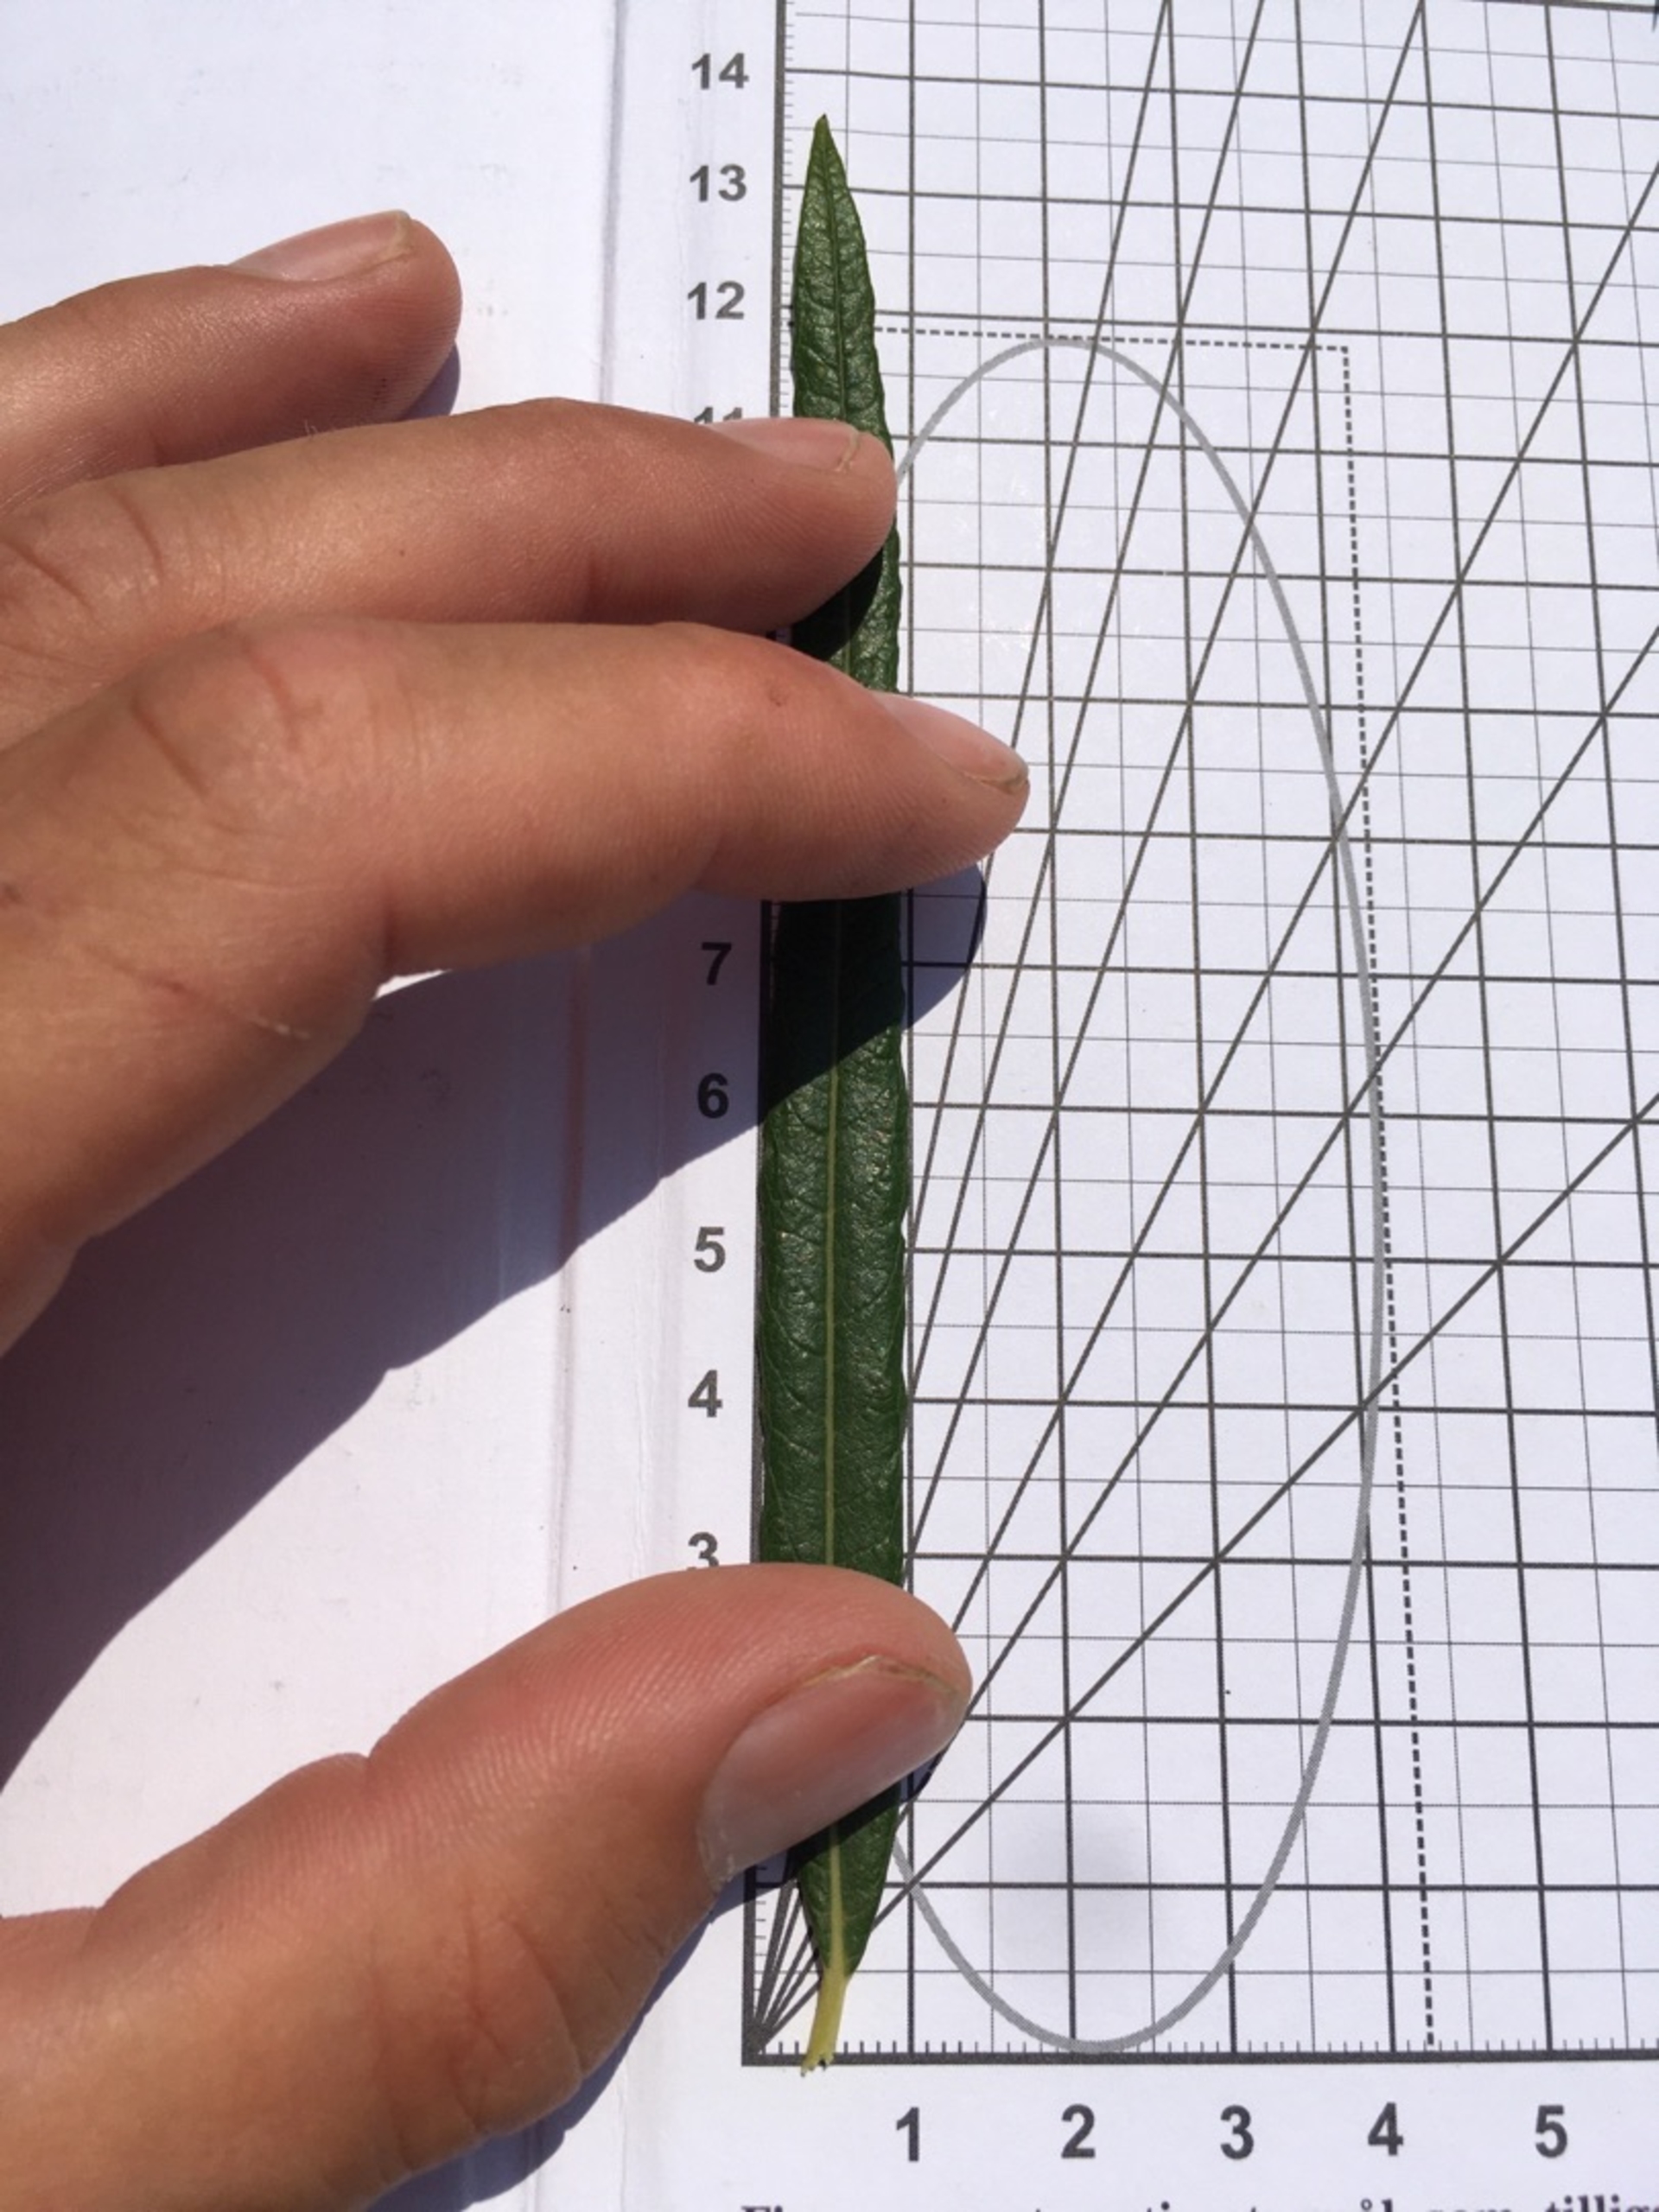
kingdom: Plantae
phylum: Tracheophyta
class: Magnoliopsida
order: Malpighiales
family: Salicaceae
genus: Salix
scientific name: Salix viminalis
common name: Bånd-pil
